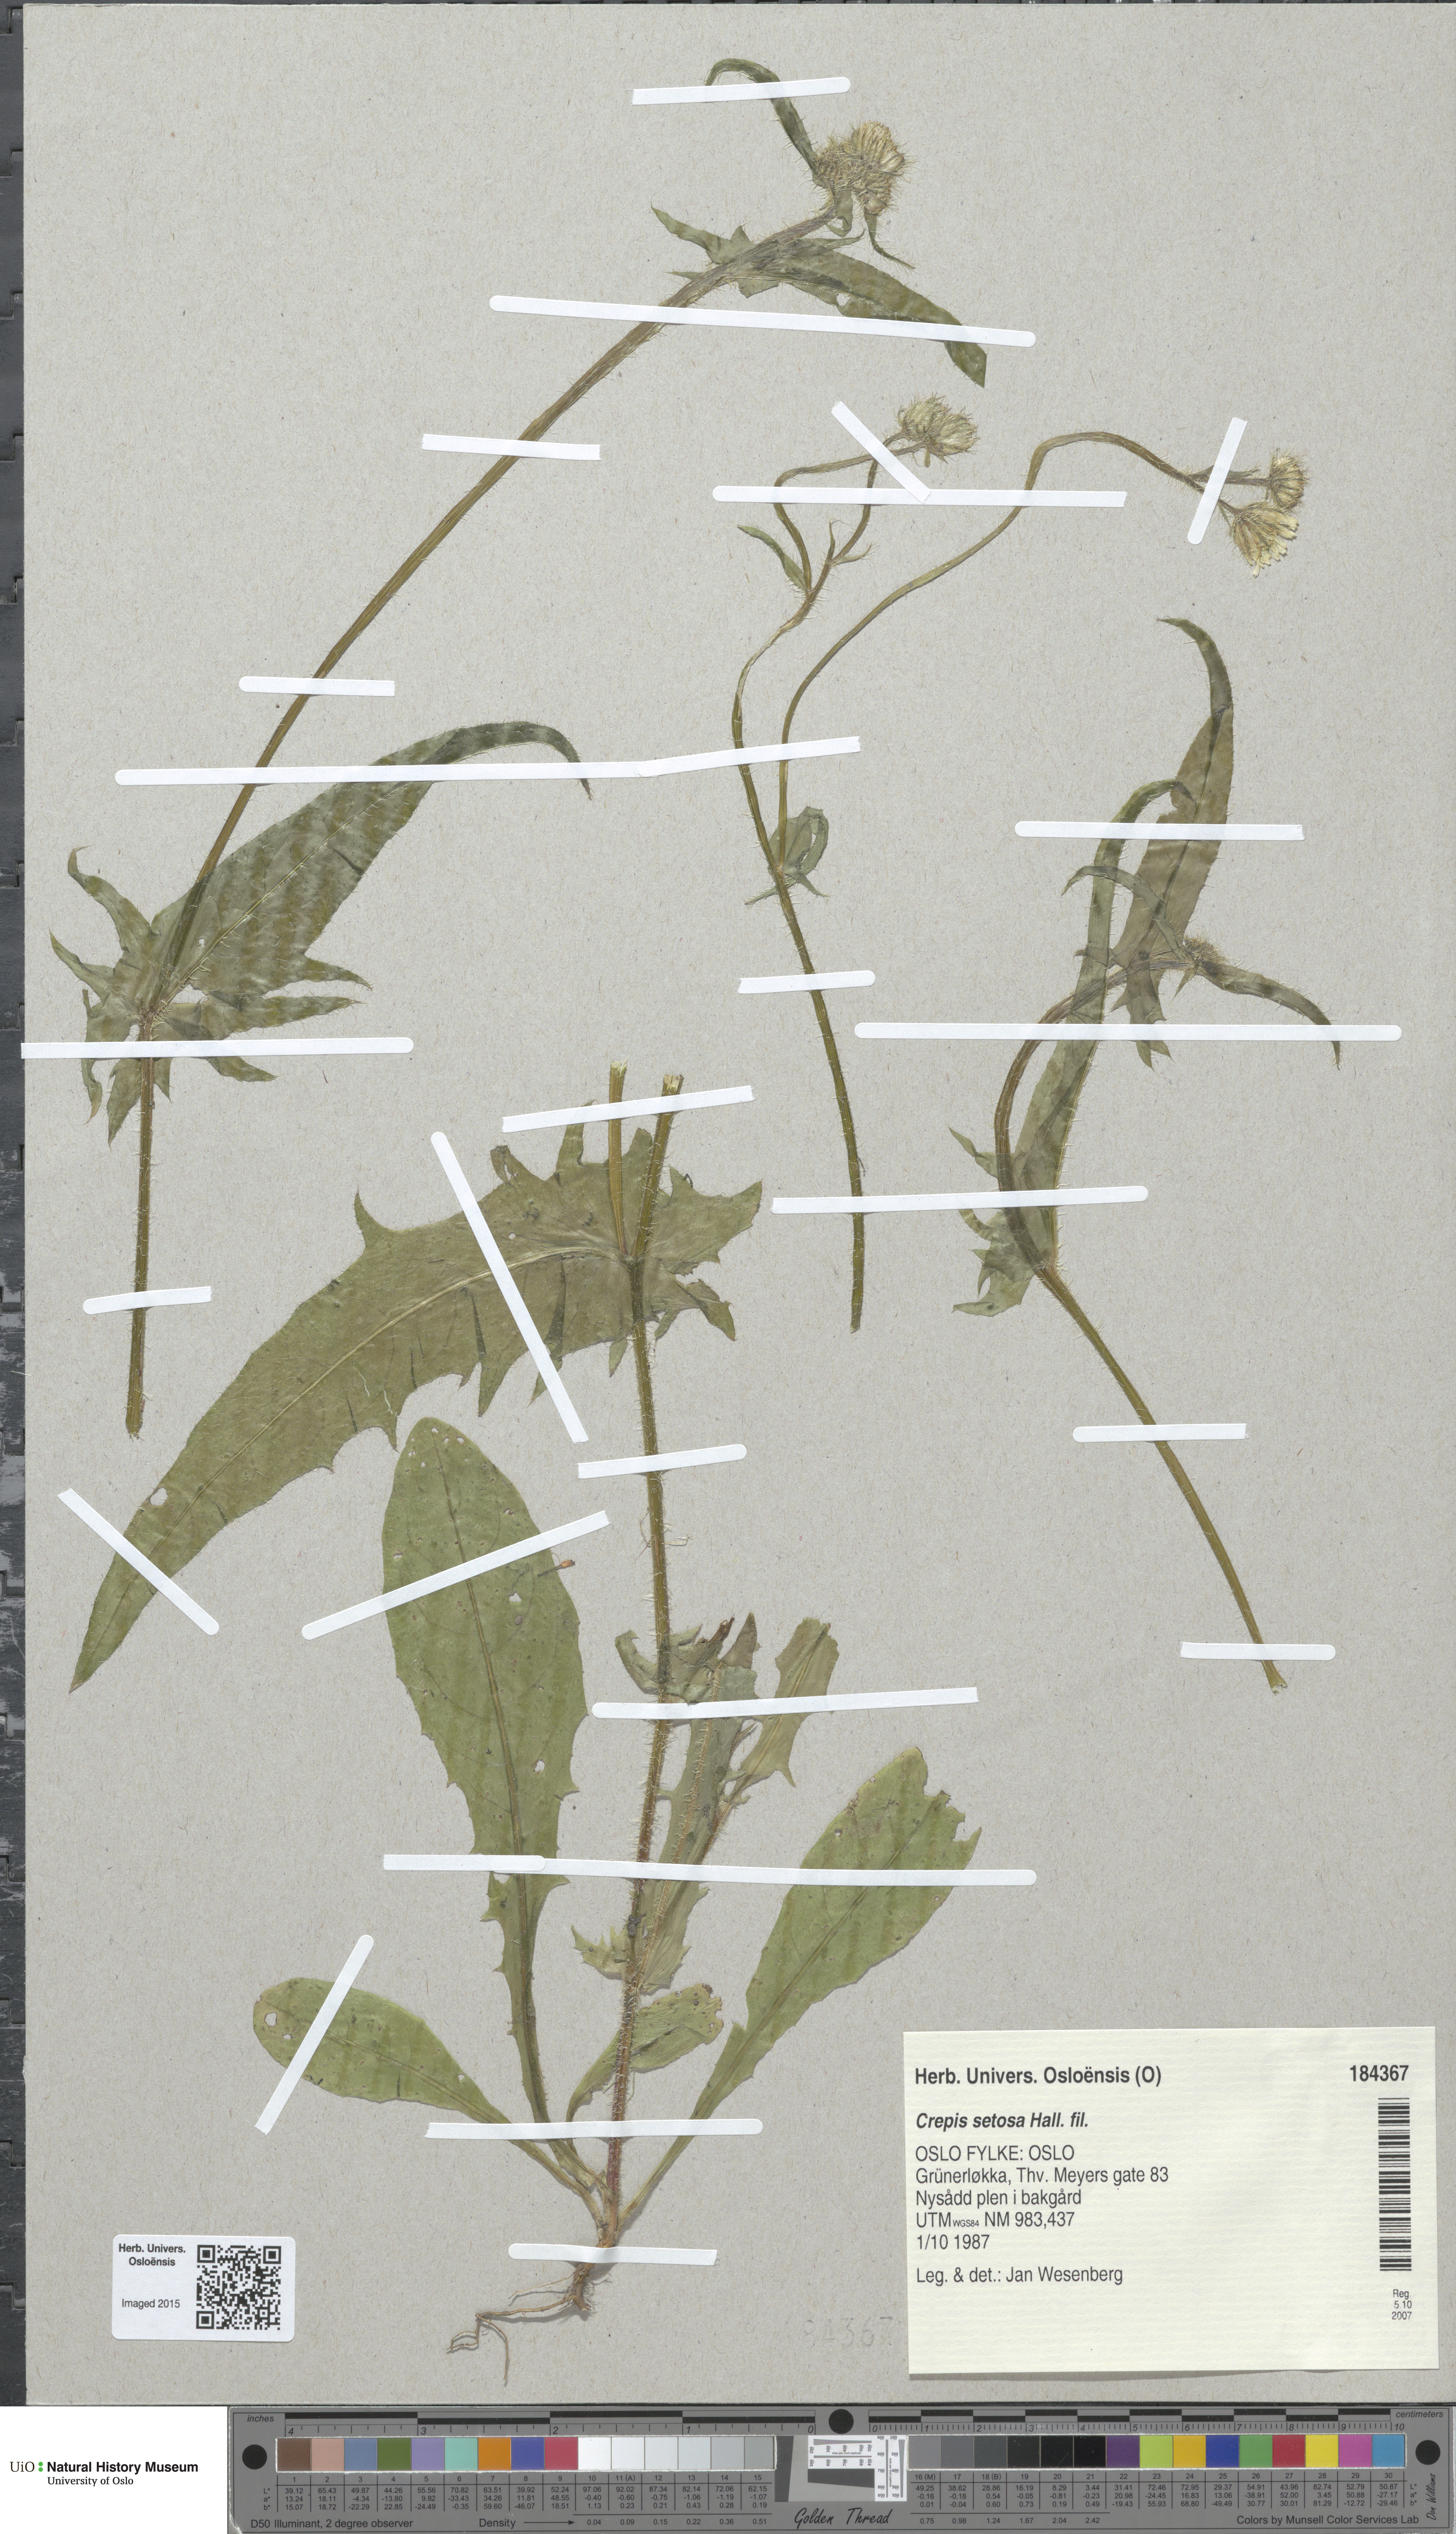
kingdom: Plantae
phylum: Tracheophyta
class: Magnoliopsida
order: Asterales
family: Asteraceae
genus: Crepis
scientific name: Crepis setosa
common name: Bristly hawk's-beard
